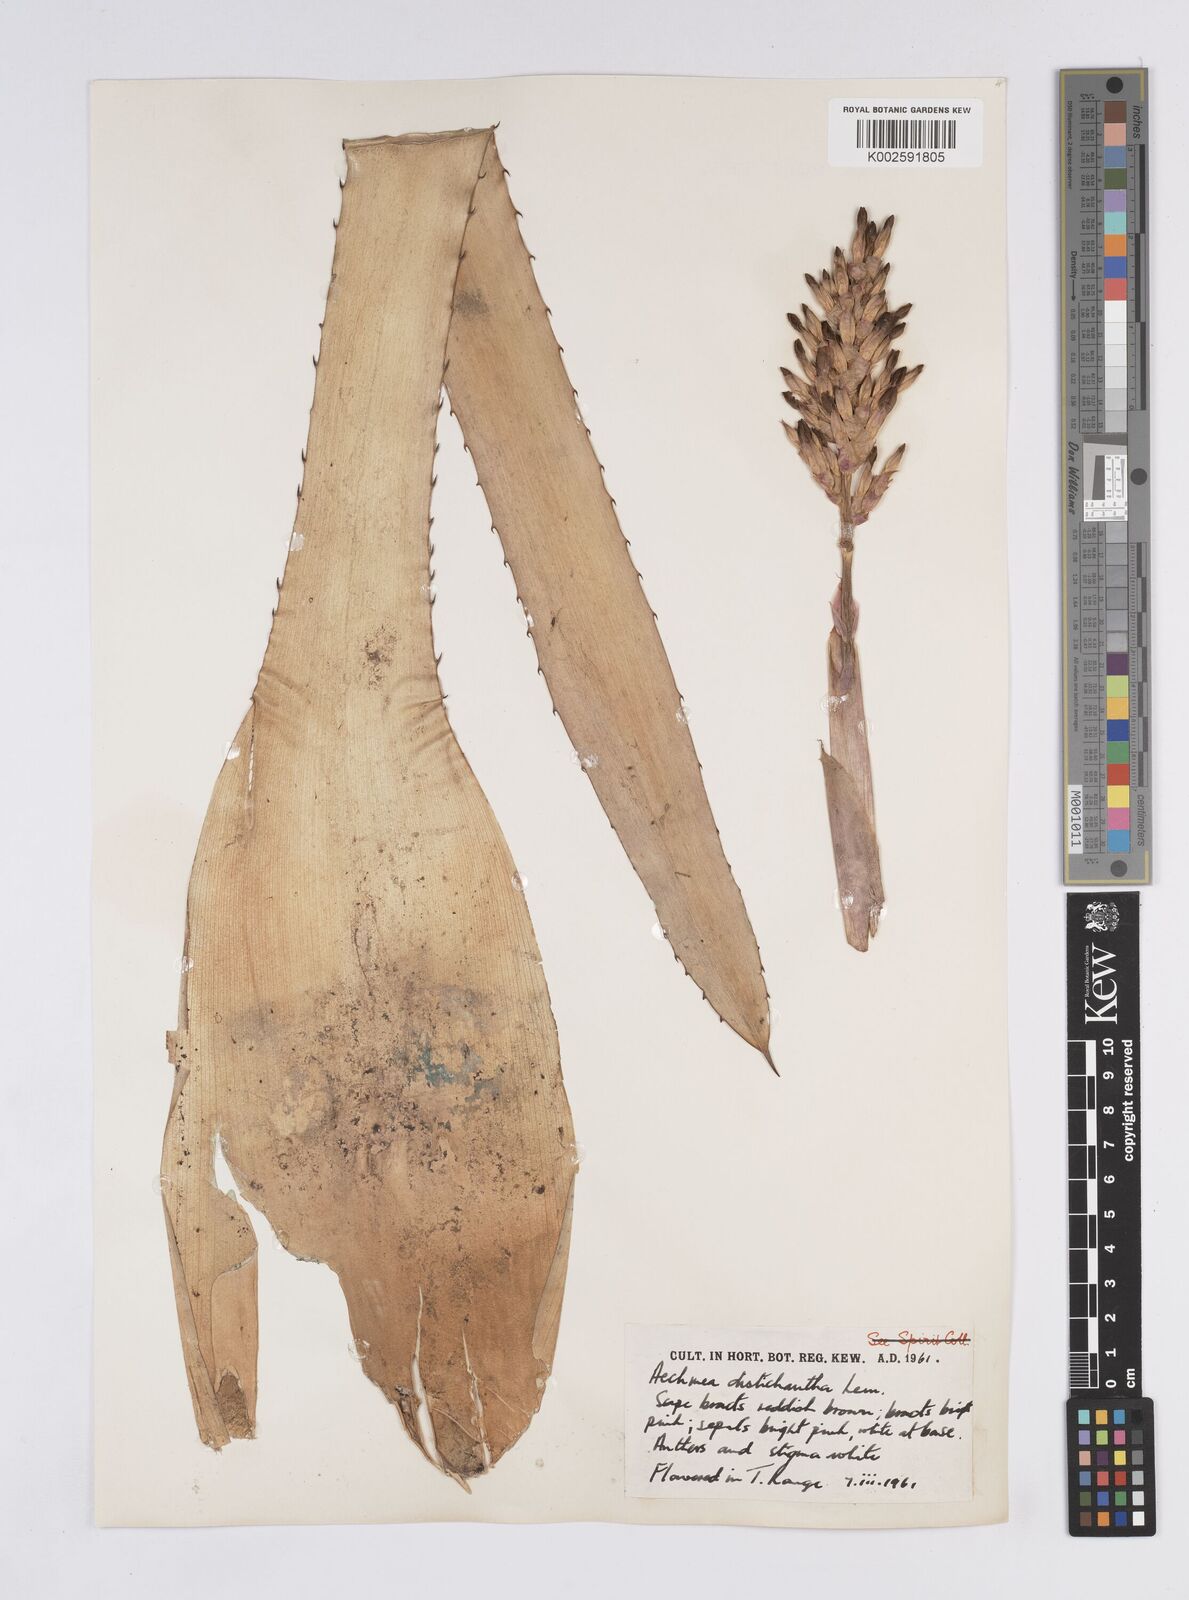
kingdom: Plantae
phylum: Tracheophyta
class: Liliopsida
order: Poales
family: Bromeliaceae
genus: Aechmea
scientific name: Aechmea distichantha
